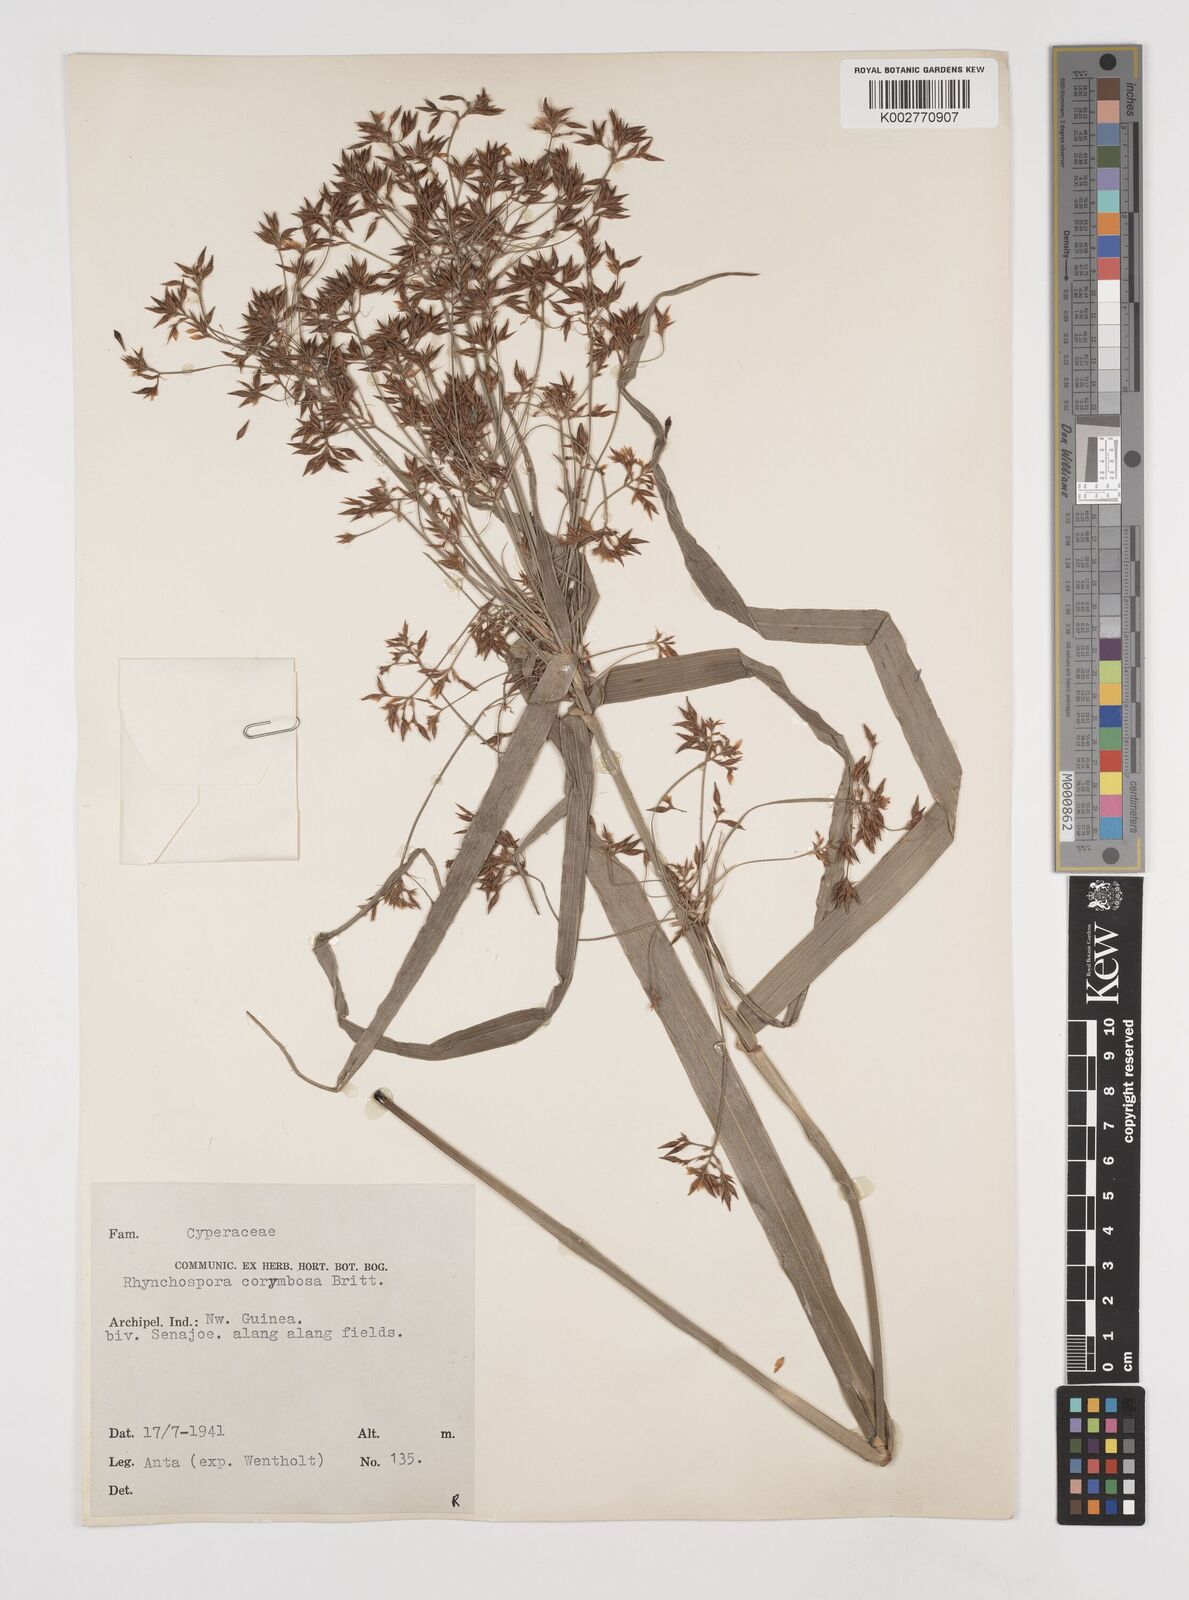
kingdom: Plantae
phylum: Tracheophyta
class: Liliopsida
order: Poales
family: Cyperaceae
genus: Rhynchospora
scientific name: Rhynchospora corymbosa
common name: Golden beak sedge
